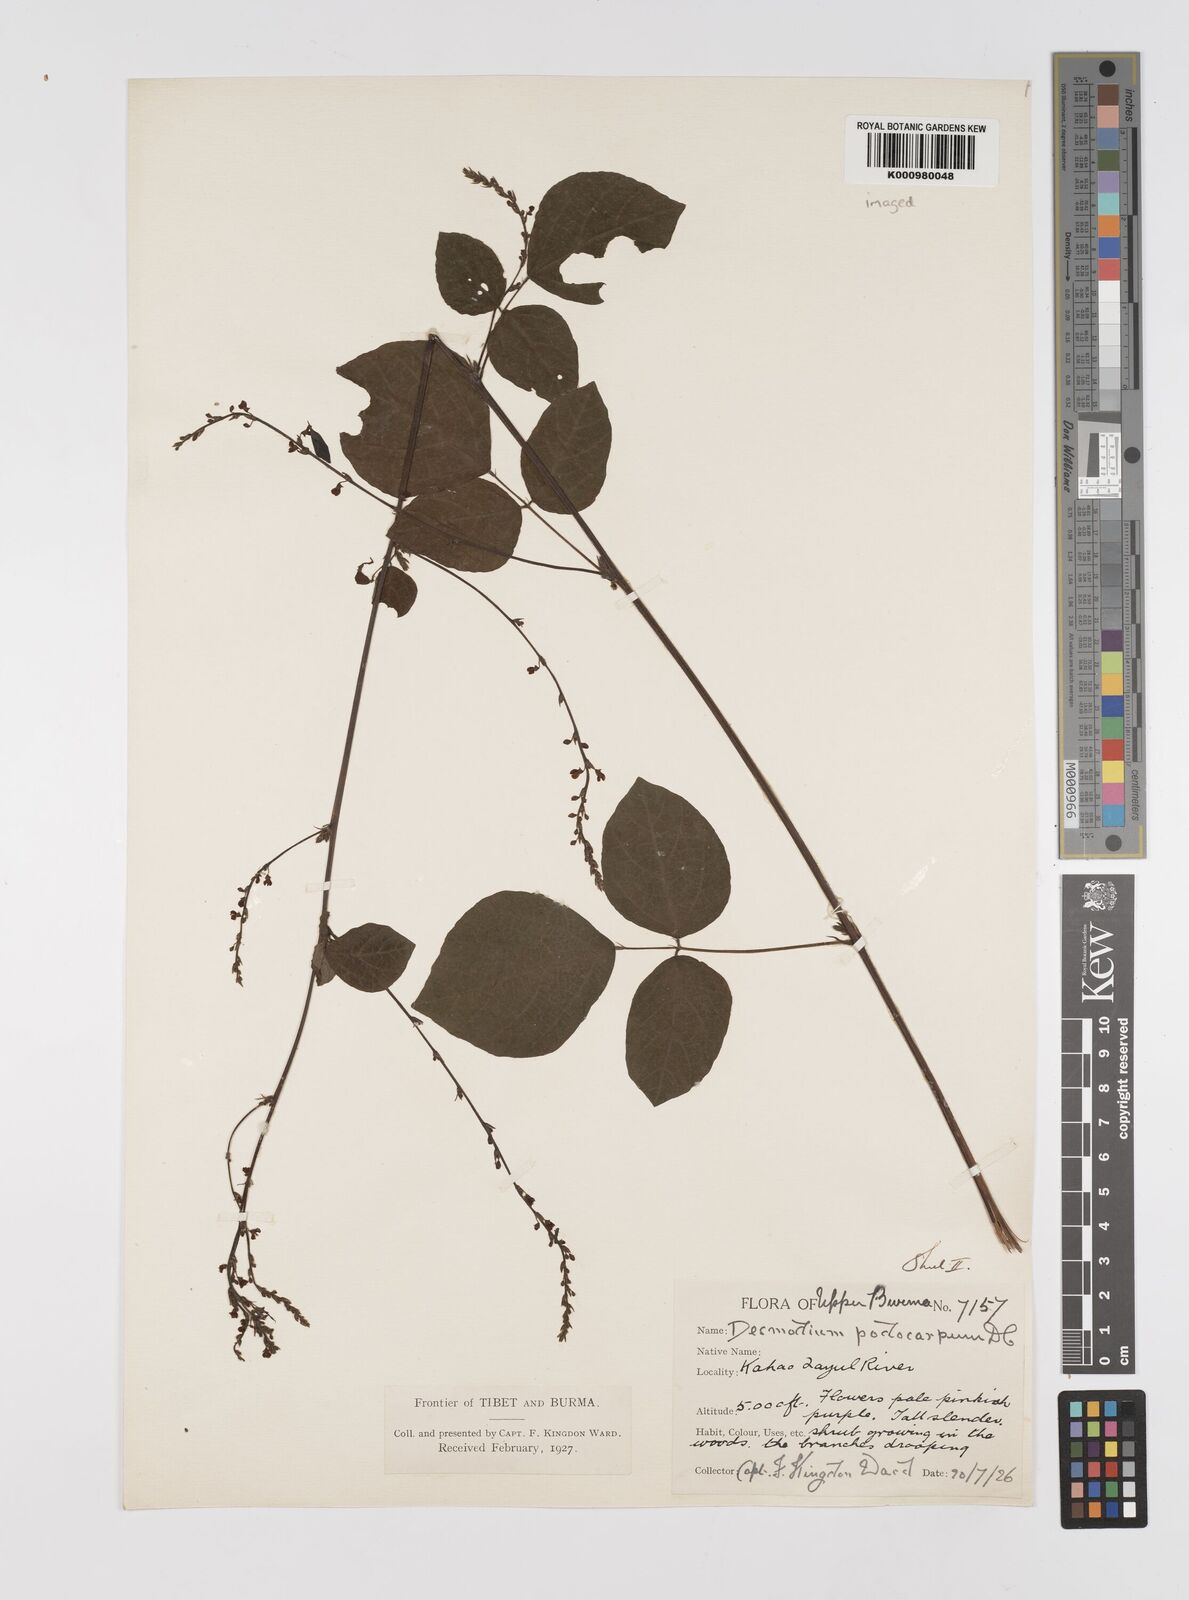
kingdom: Plantae
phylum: Tracheophyta
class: Magnoliopsida
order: Fabales
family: Fabaceae
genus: Desmodium
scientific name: Desmodium
